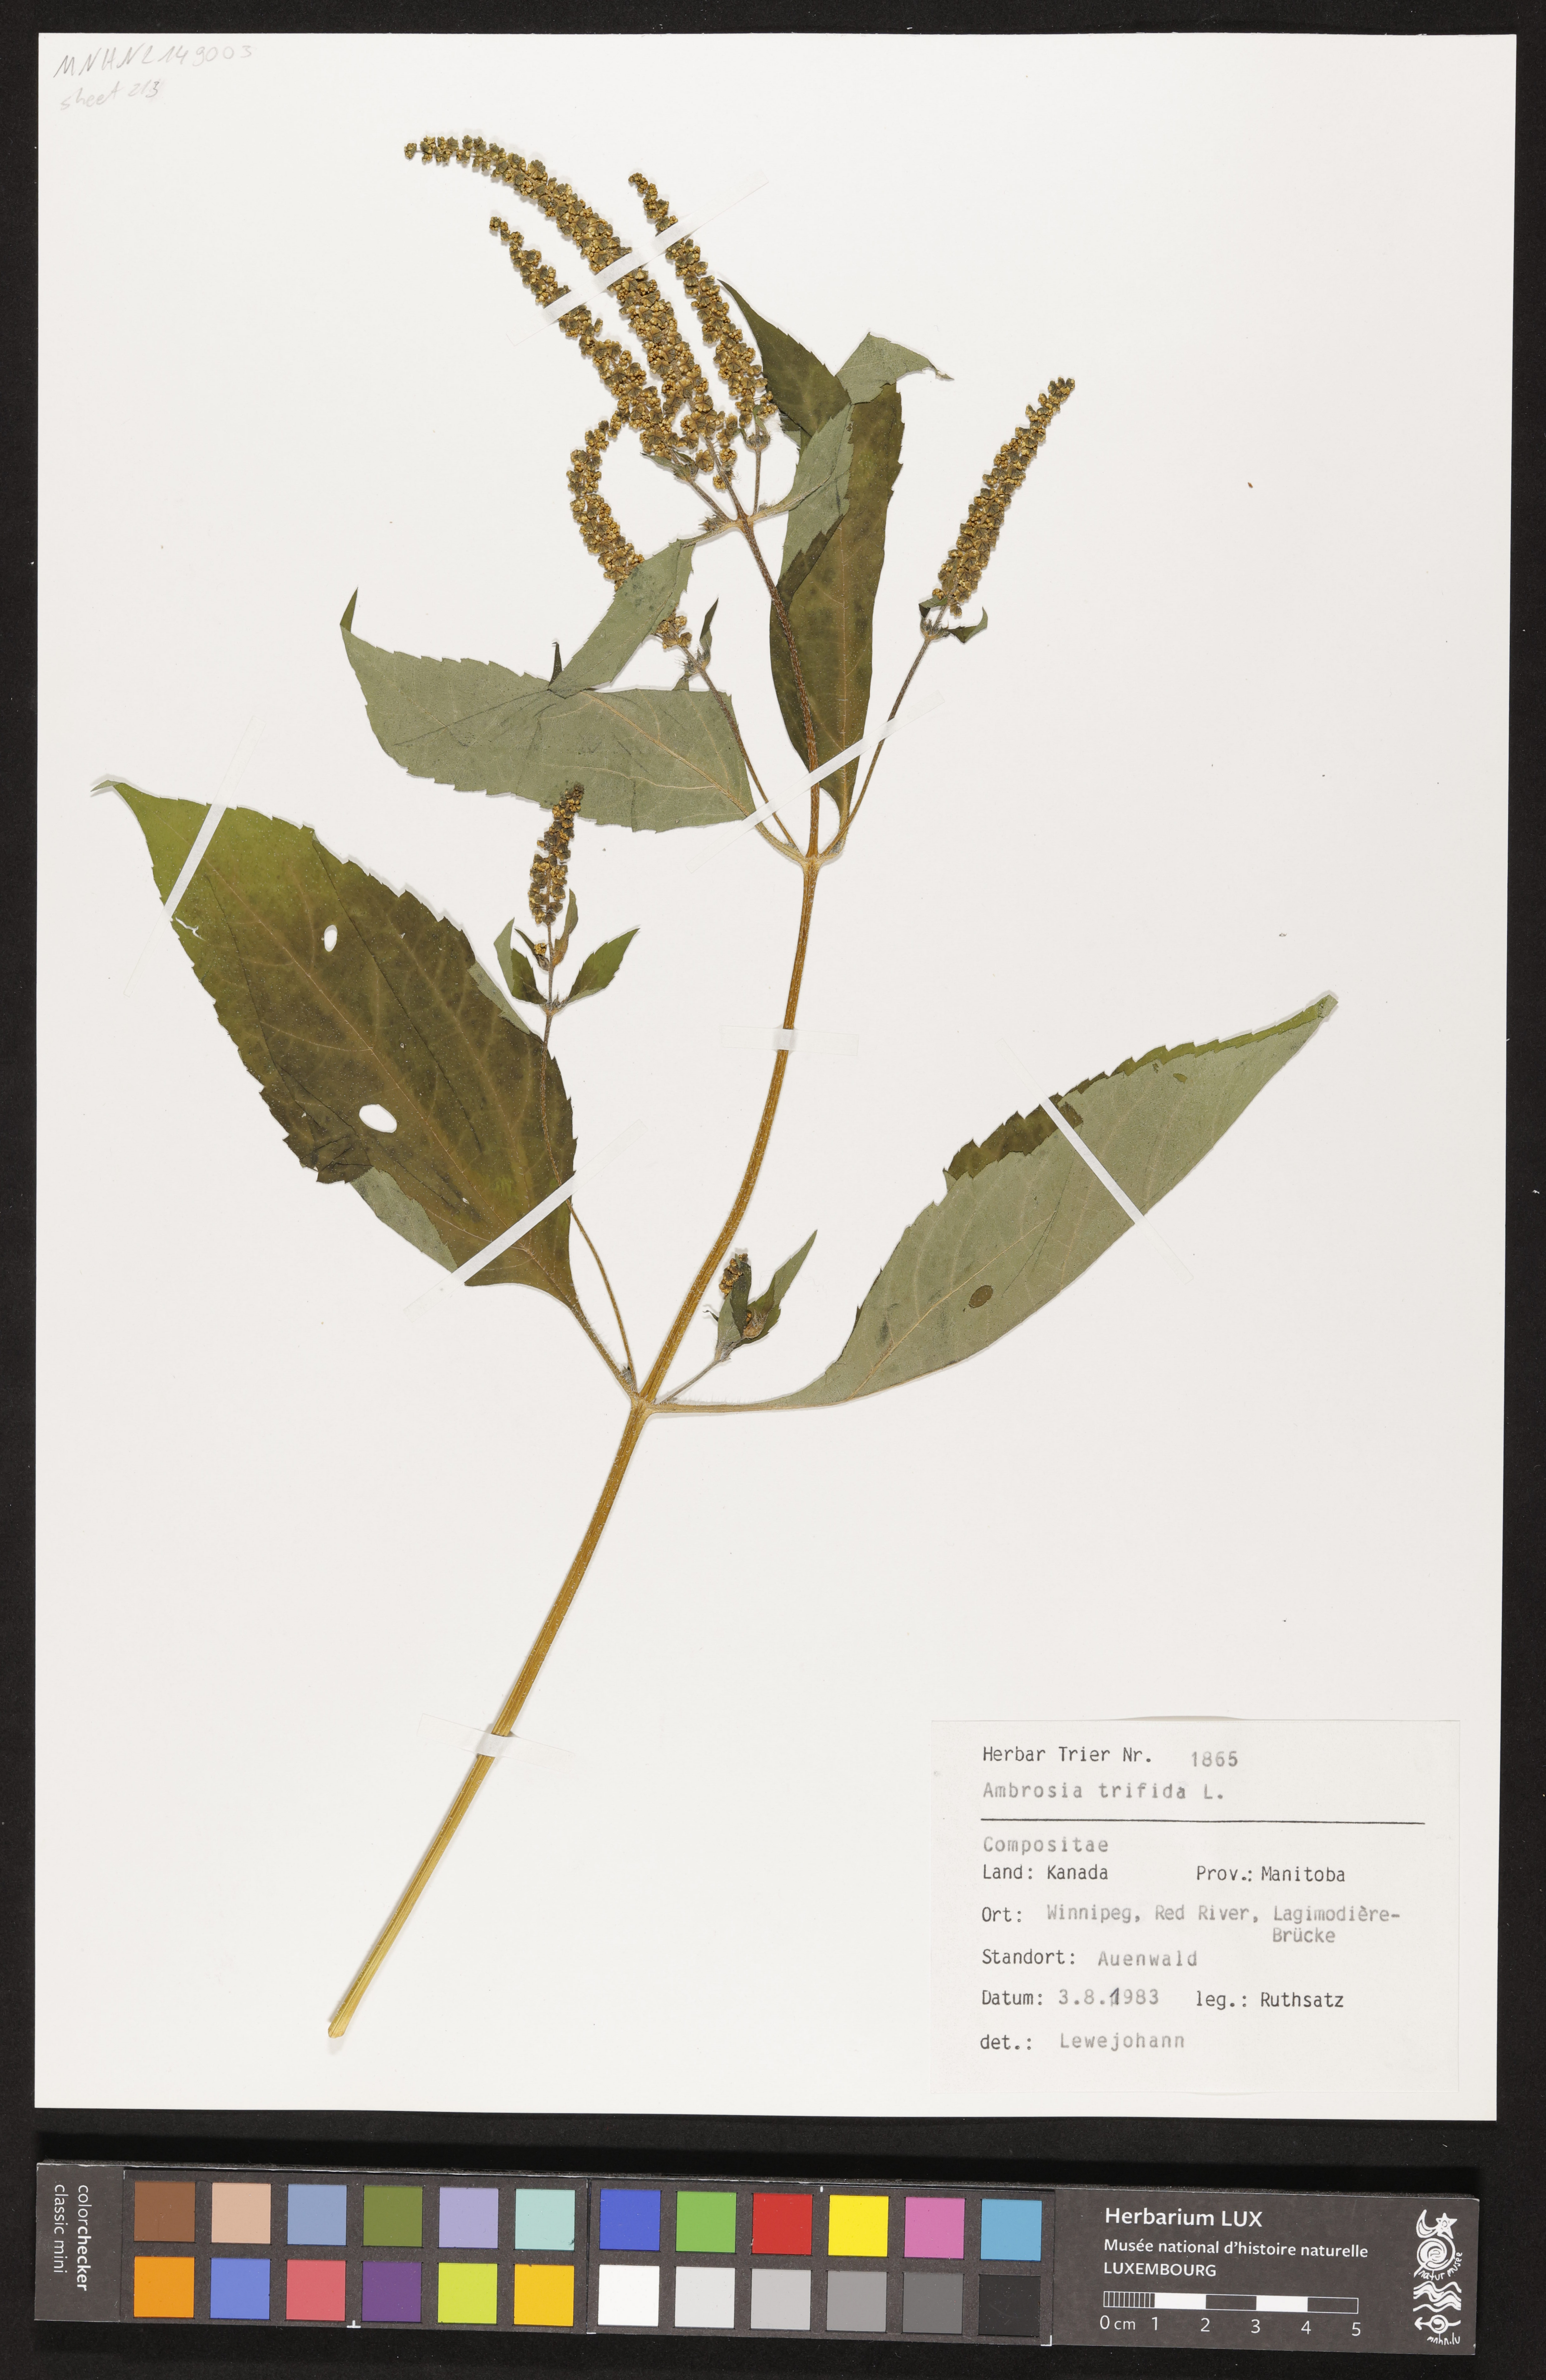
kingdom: Plantae
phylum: Tracheophyta
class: Magnoliopsida
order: Asterales
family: Asteraceae
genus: Ambrosia
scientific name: Ambrosia trifida
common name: Giant ragweed
